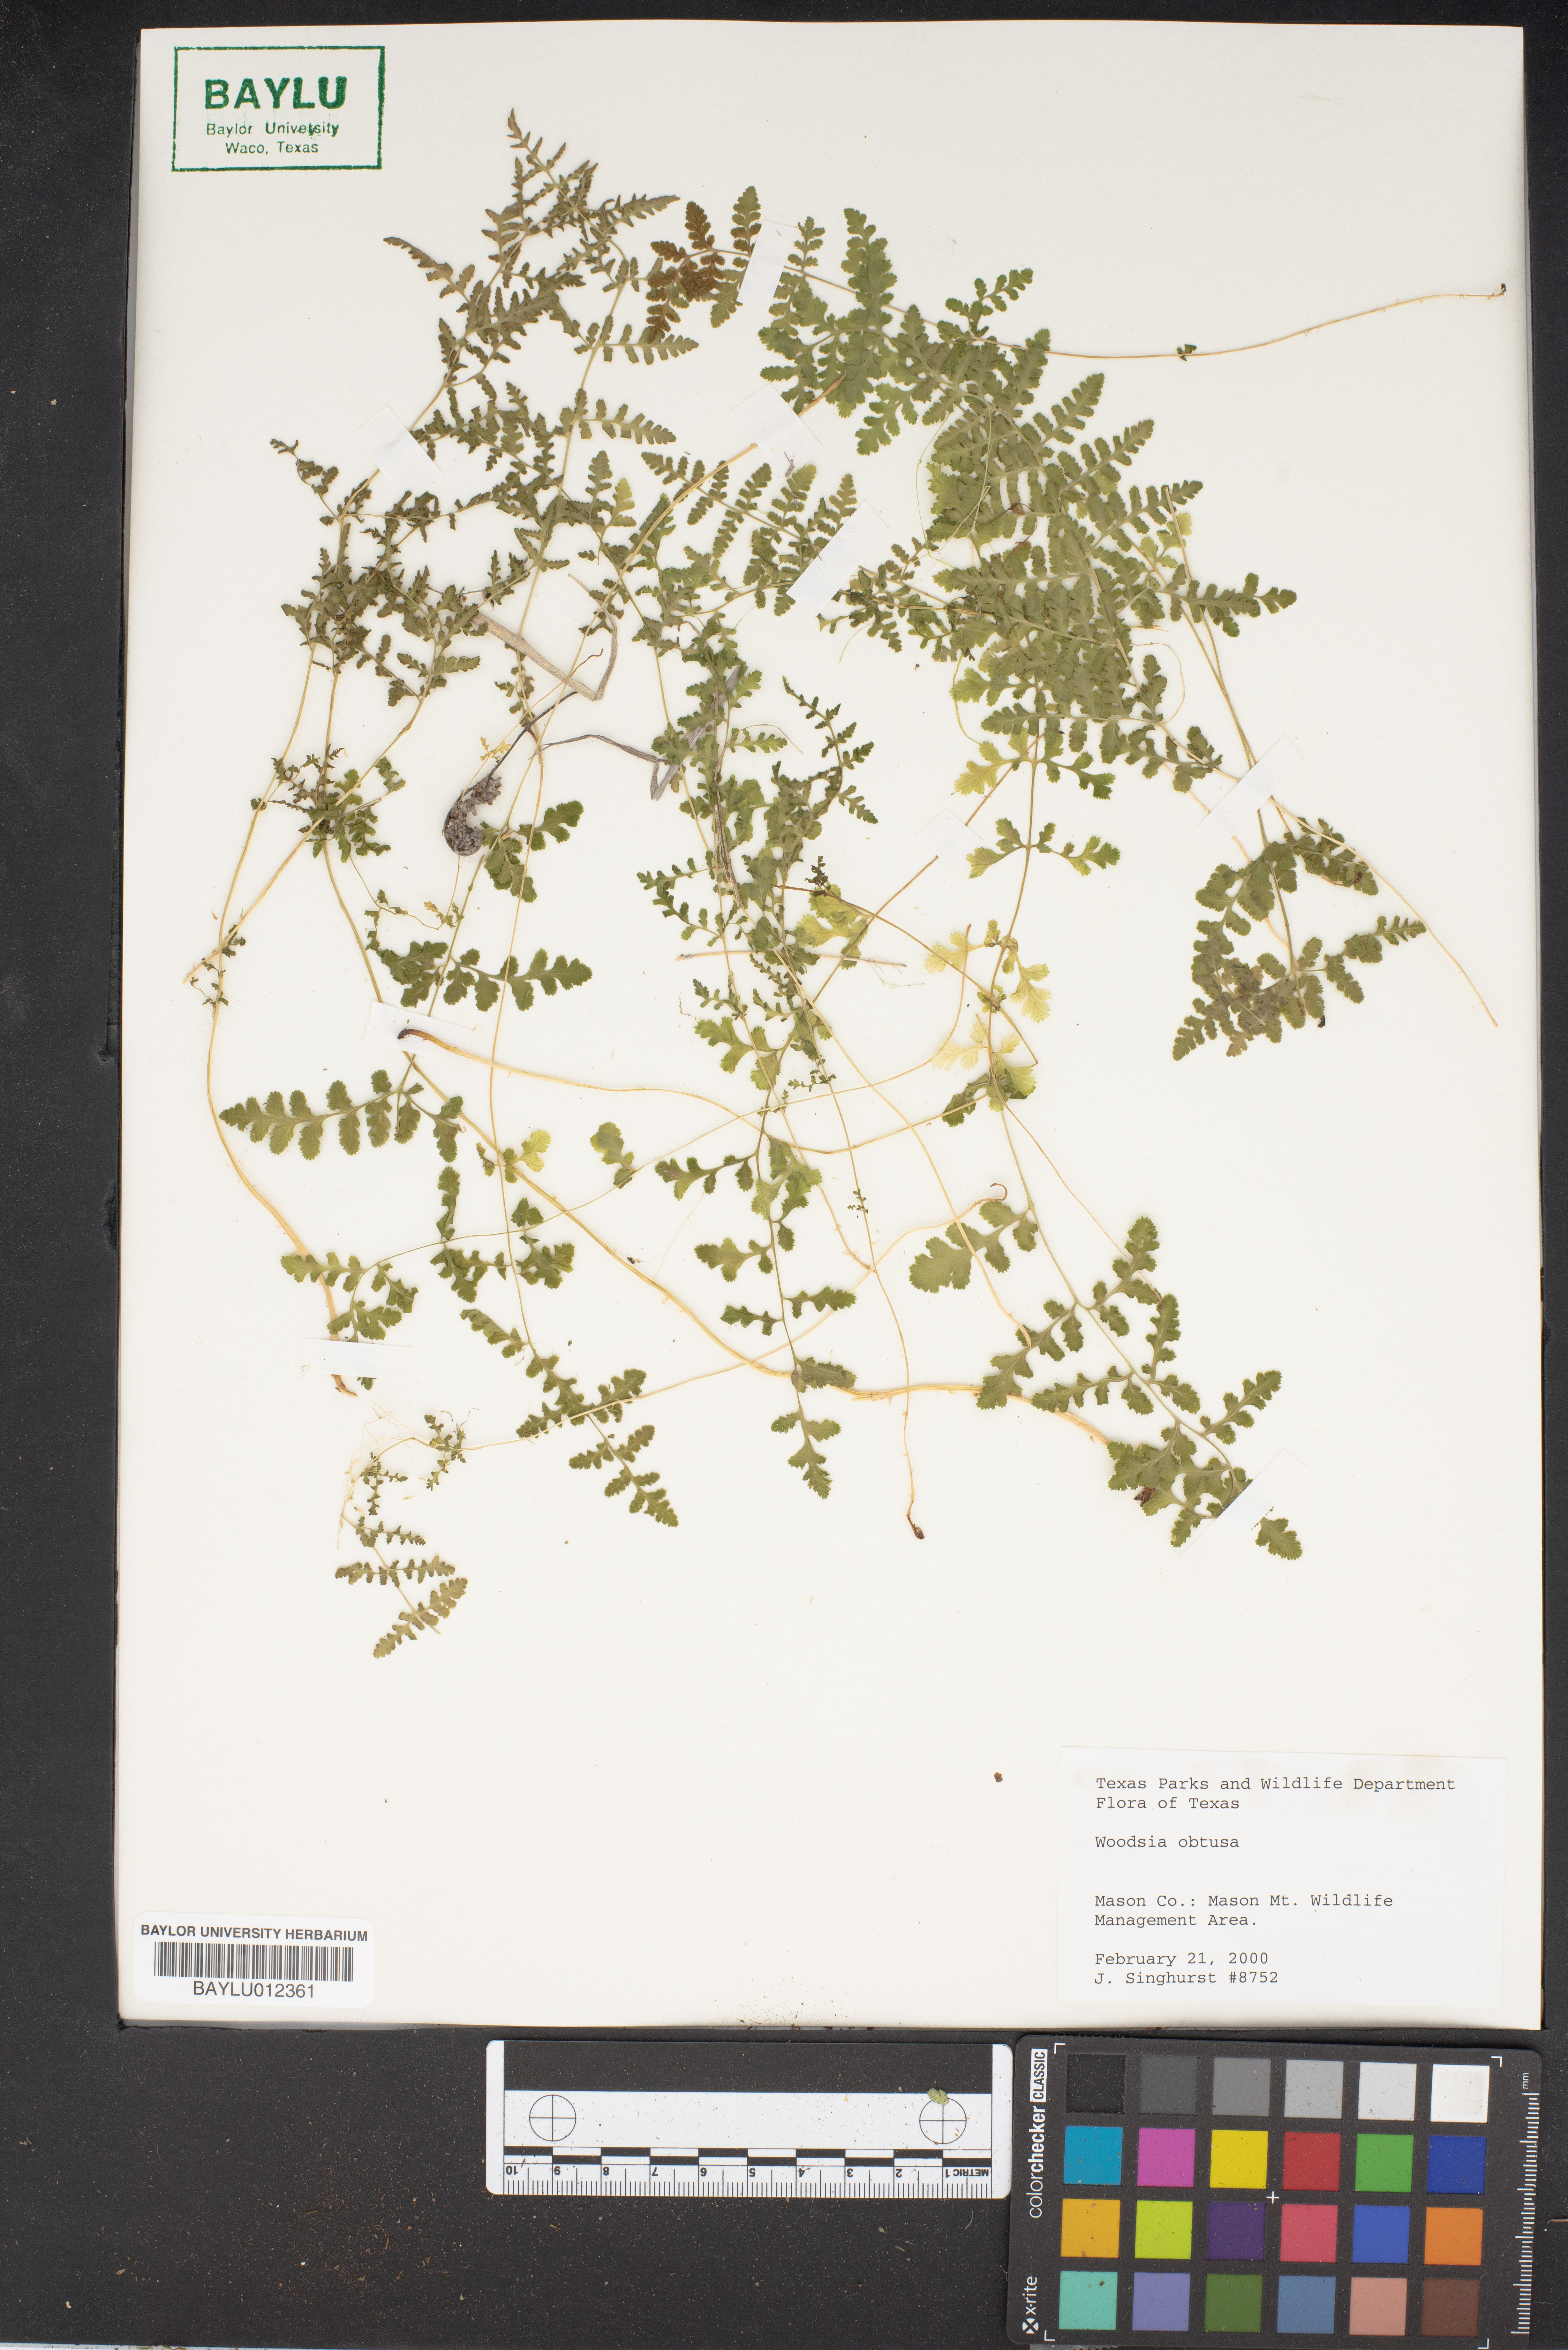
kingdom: Plantae
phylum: Tracheophyta
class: Polypodiopsida
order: Polypodiales
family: Woodsiaceae
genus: Physematium
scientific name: Physematium obtusum
